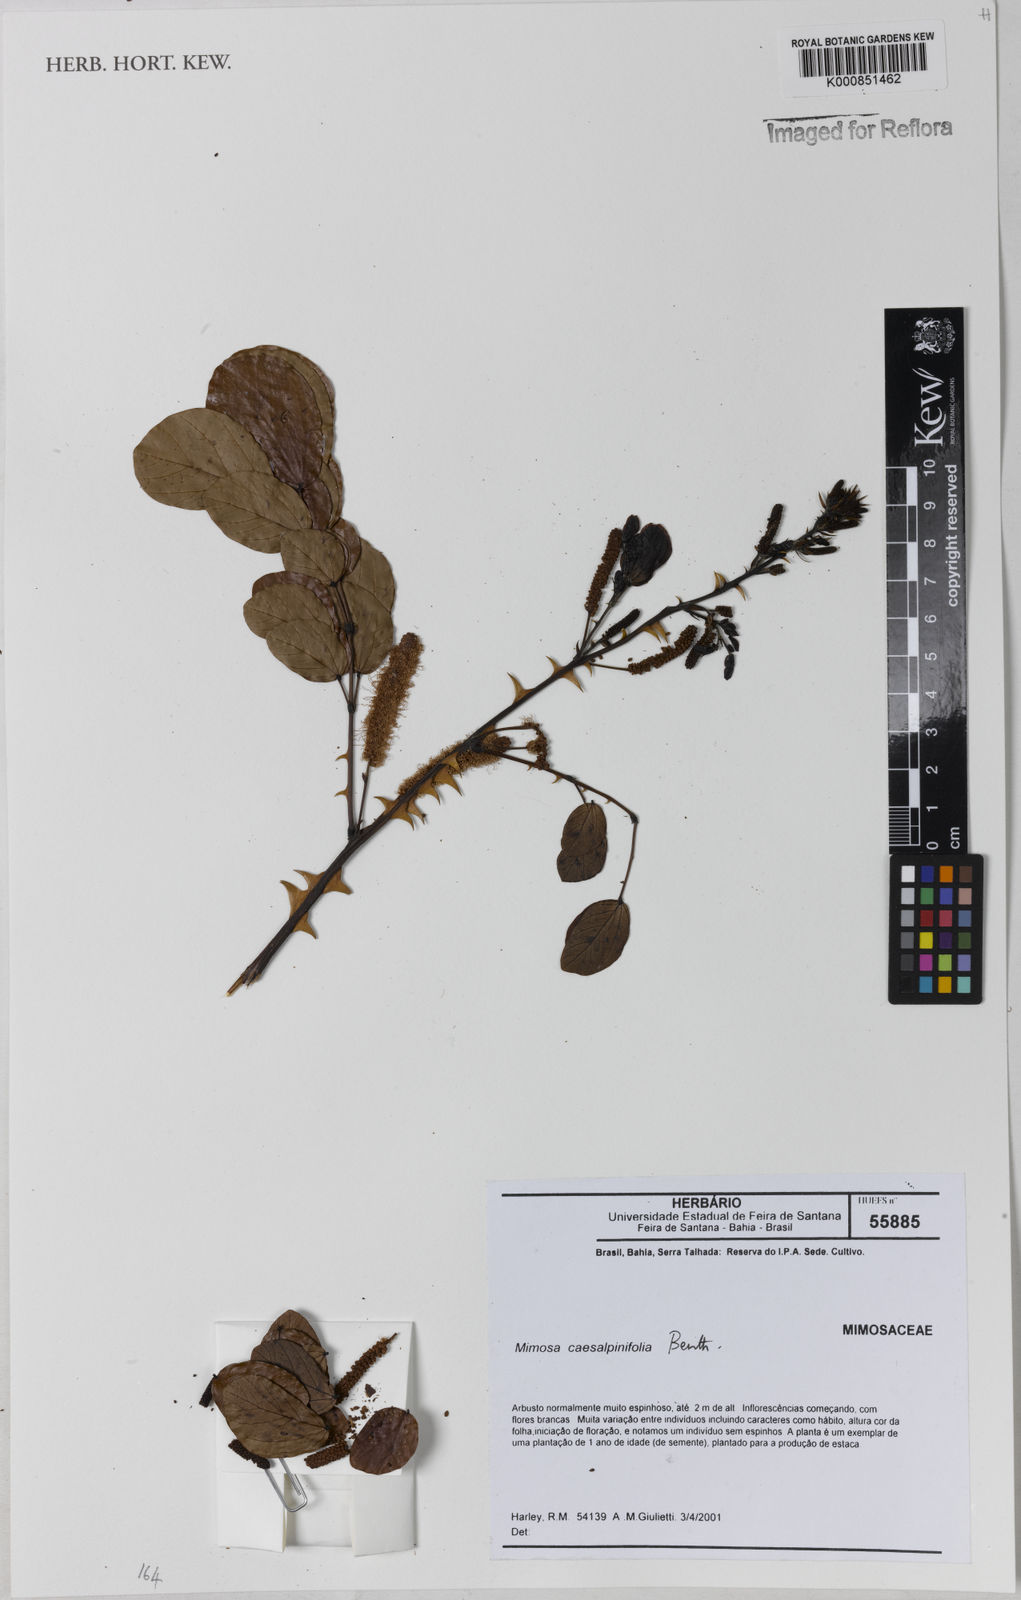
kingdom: Plantae
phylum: Tracheophyta
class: Magnoliopsida
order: Fabales
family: Fabaceae
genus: Mimosa
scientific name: Mimosa caesalpiniifolia
